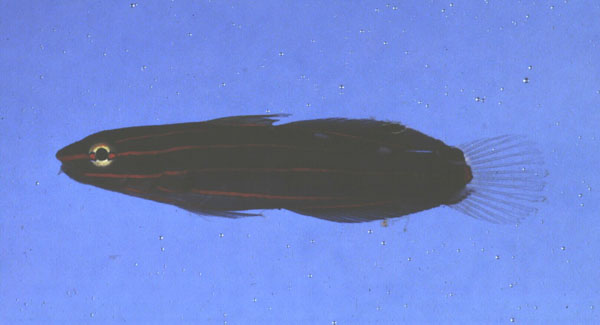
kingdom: Animalia
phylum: Chordata
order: Perciformes
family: Gobiidae
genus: Koumansetta
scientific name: Koumansetta rainfordi
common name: Old glory
